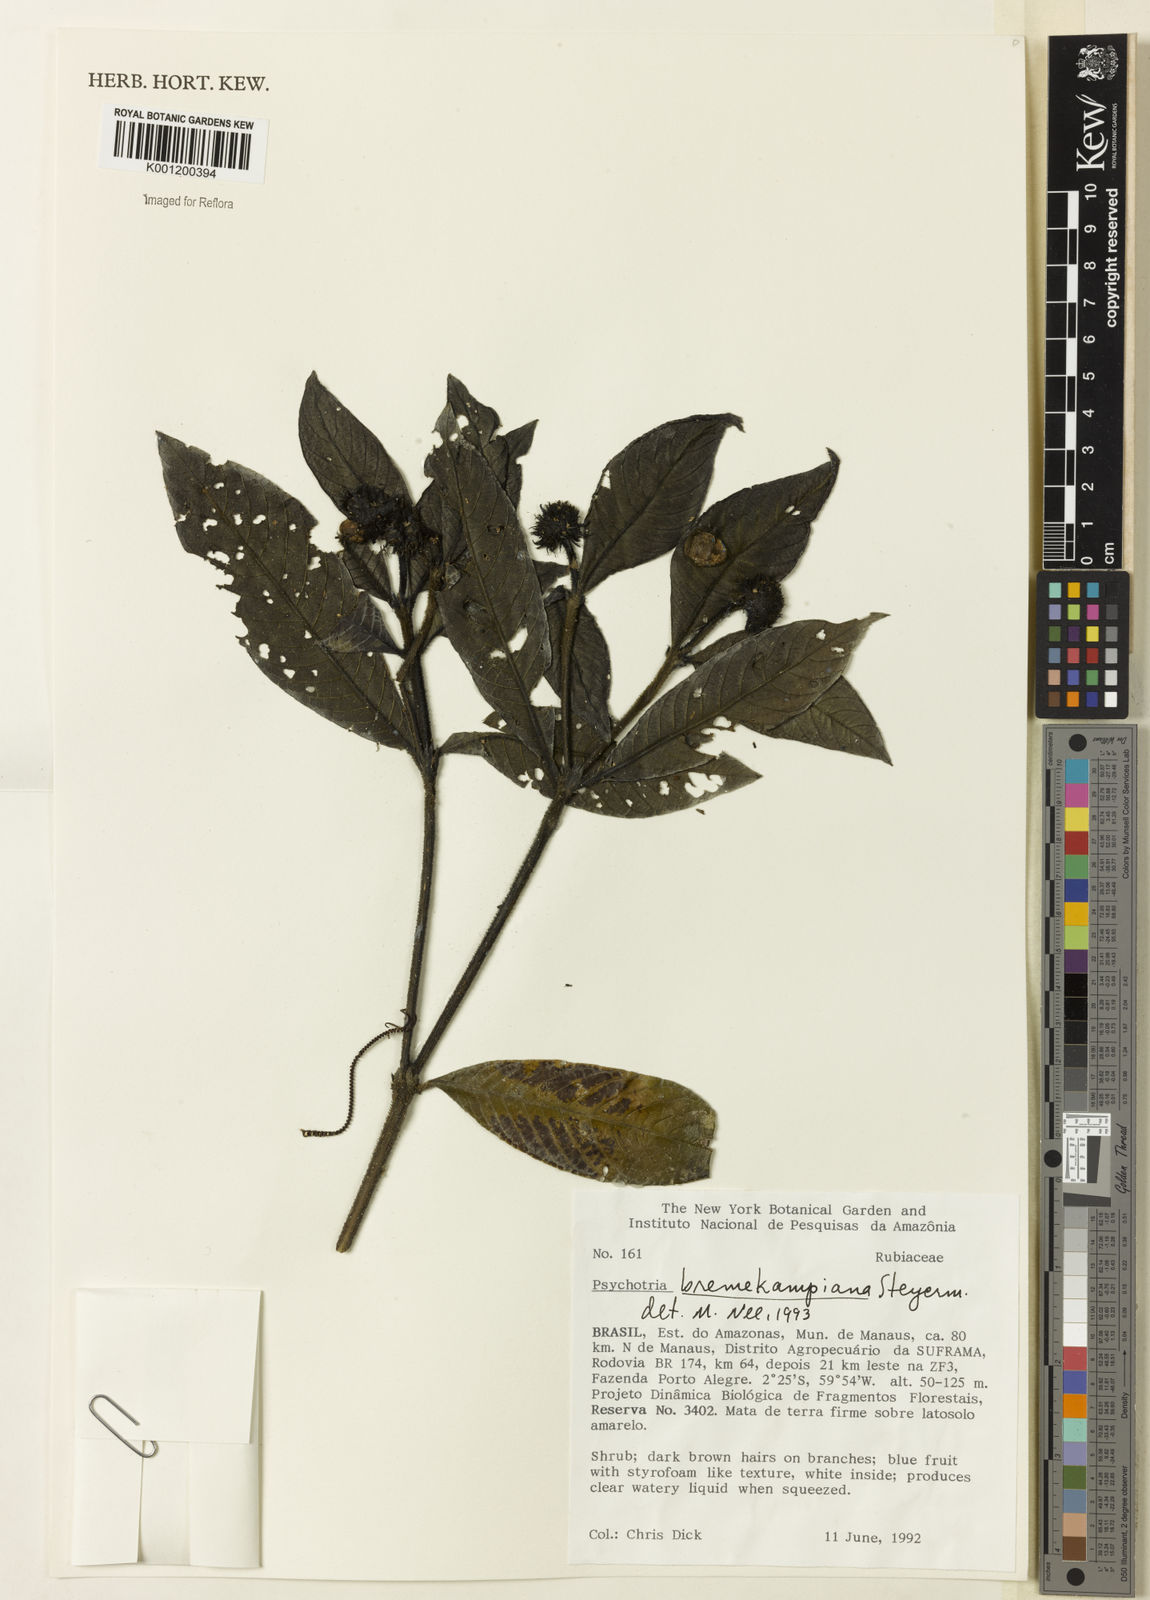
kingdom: Plantae
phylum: Tracheophyta
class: Magnoliopsida
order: Gentianales
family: Rubiaceae
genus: Palicourea
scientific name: Palicourea hirta
